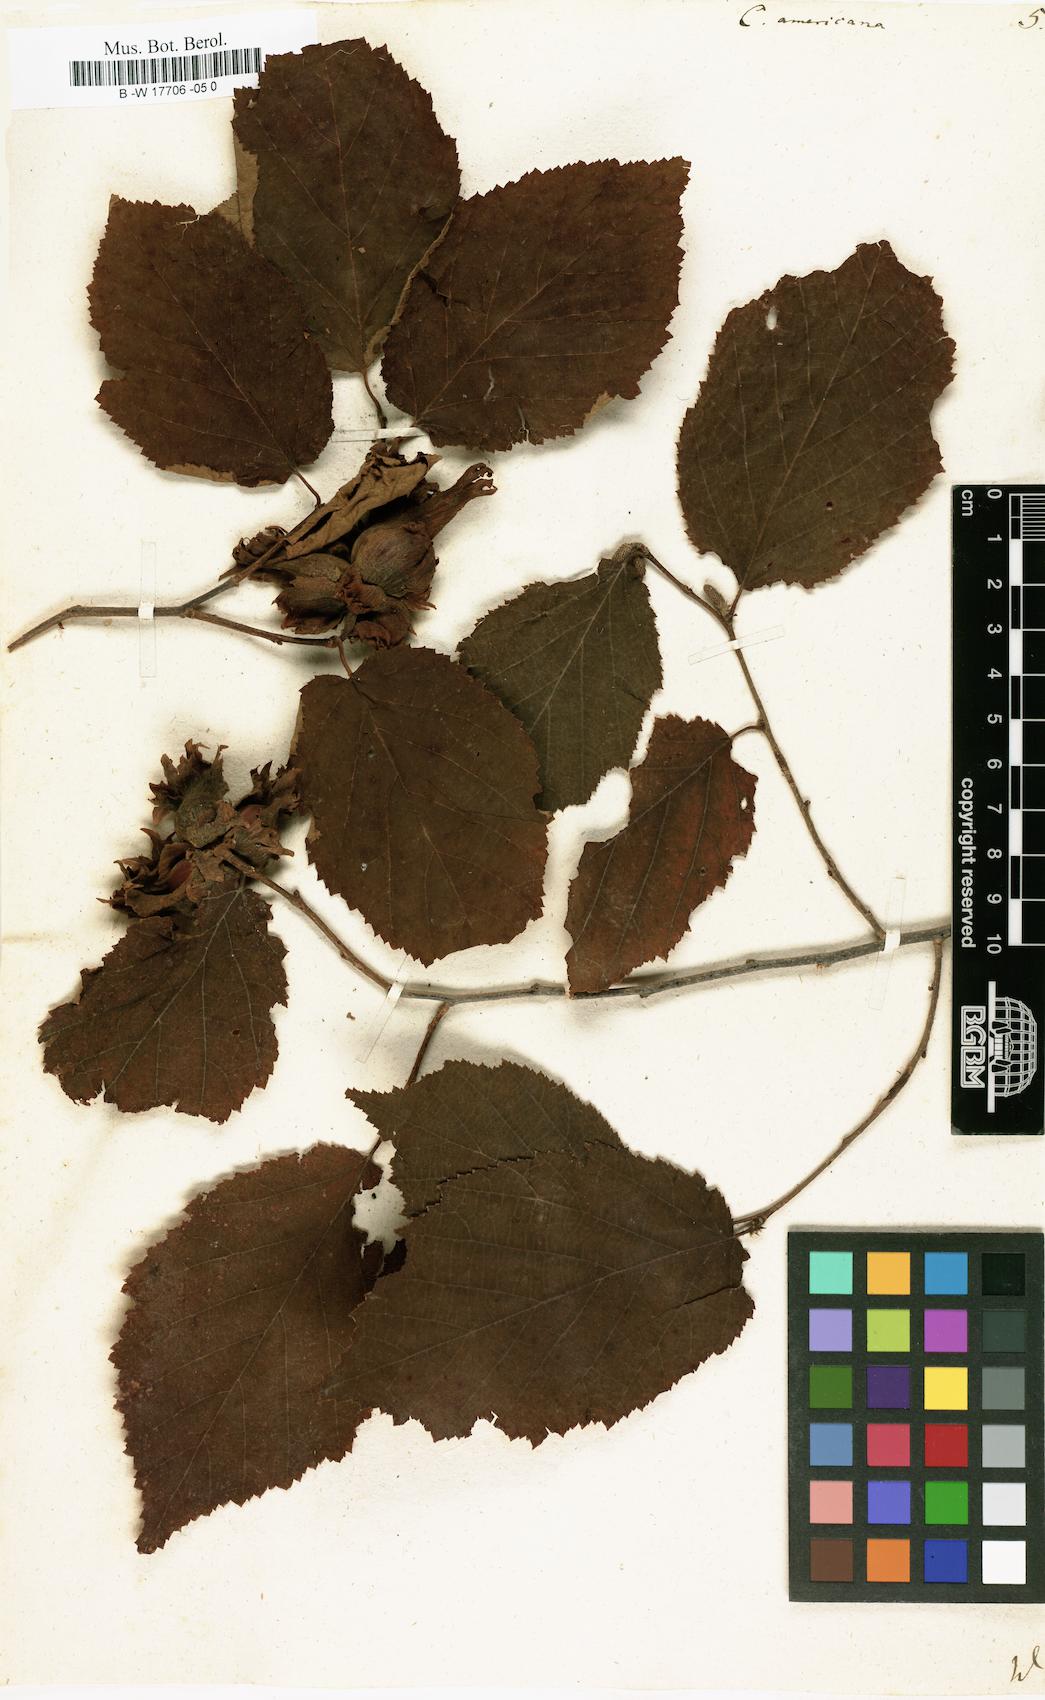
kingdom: Plantae
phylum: Tracheophyta
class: Magnoliopsida
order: Fagales
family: Betulaceae
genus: Corylus
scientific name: Corylus americana
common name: American hazel
